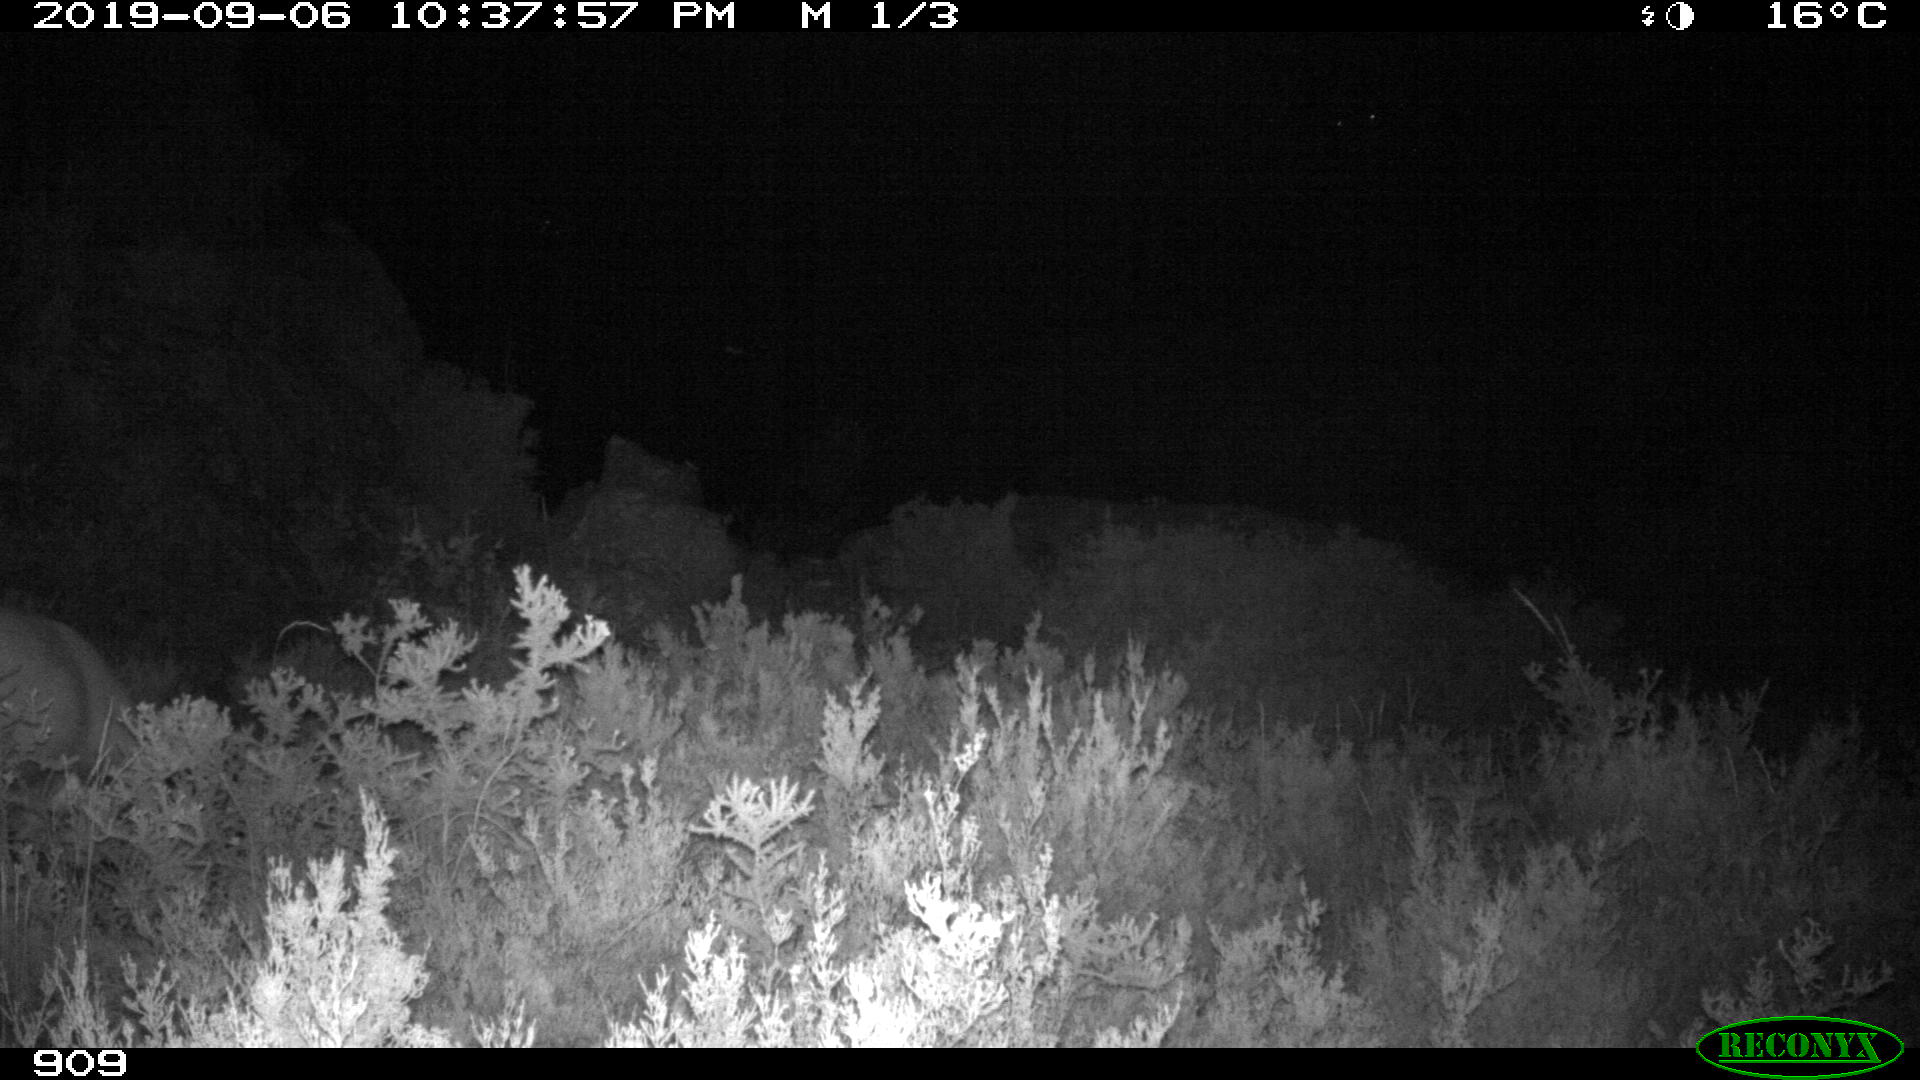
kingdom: Animalia
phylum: Chordata
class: Mammalia
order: Artiodactyla
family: Bovidae
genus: Capra
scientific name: Capra pyrenaica
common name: Spanish ibex
